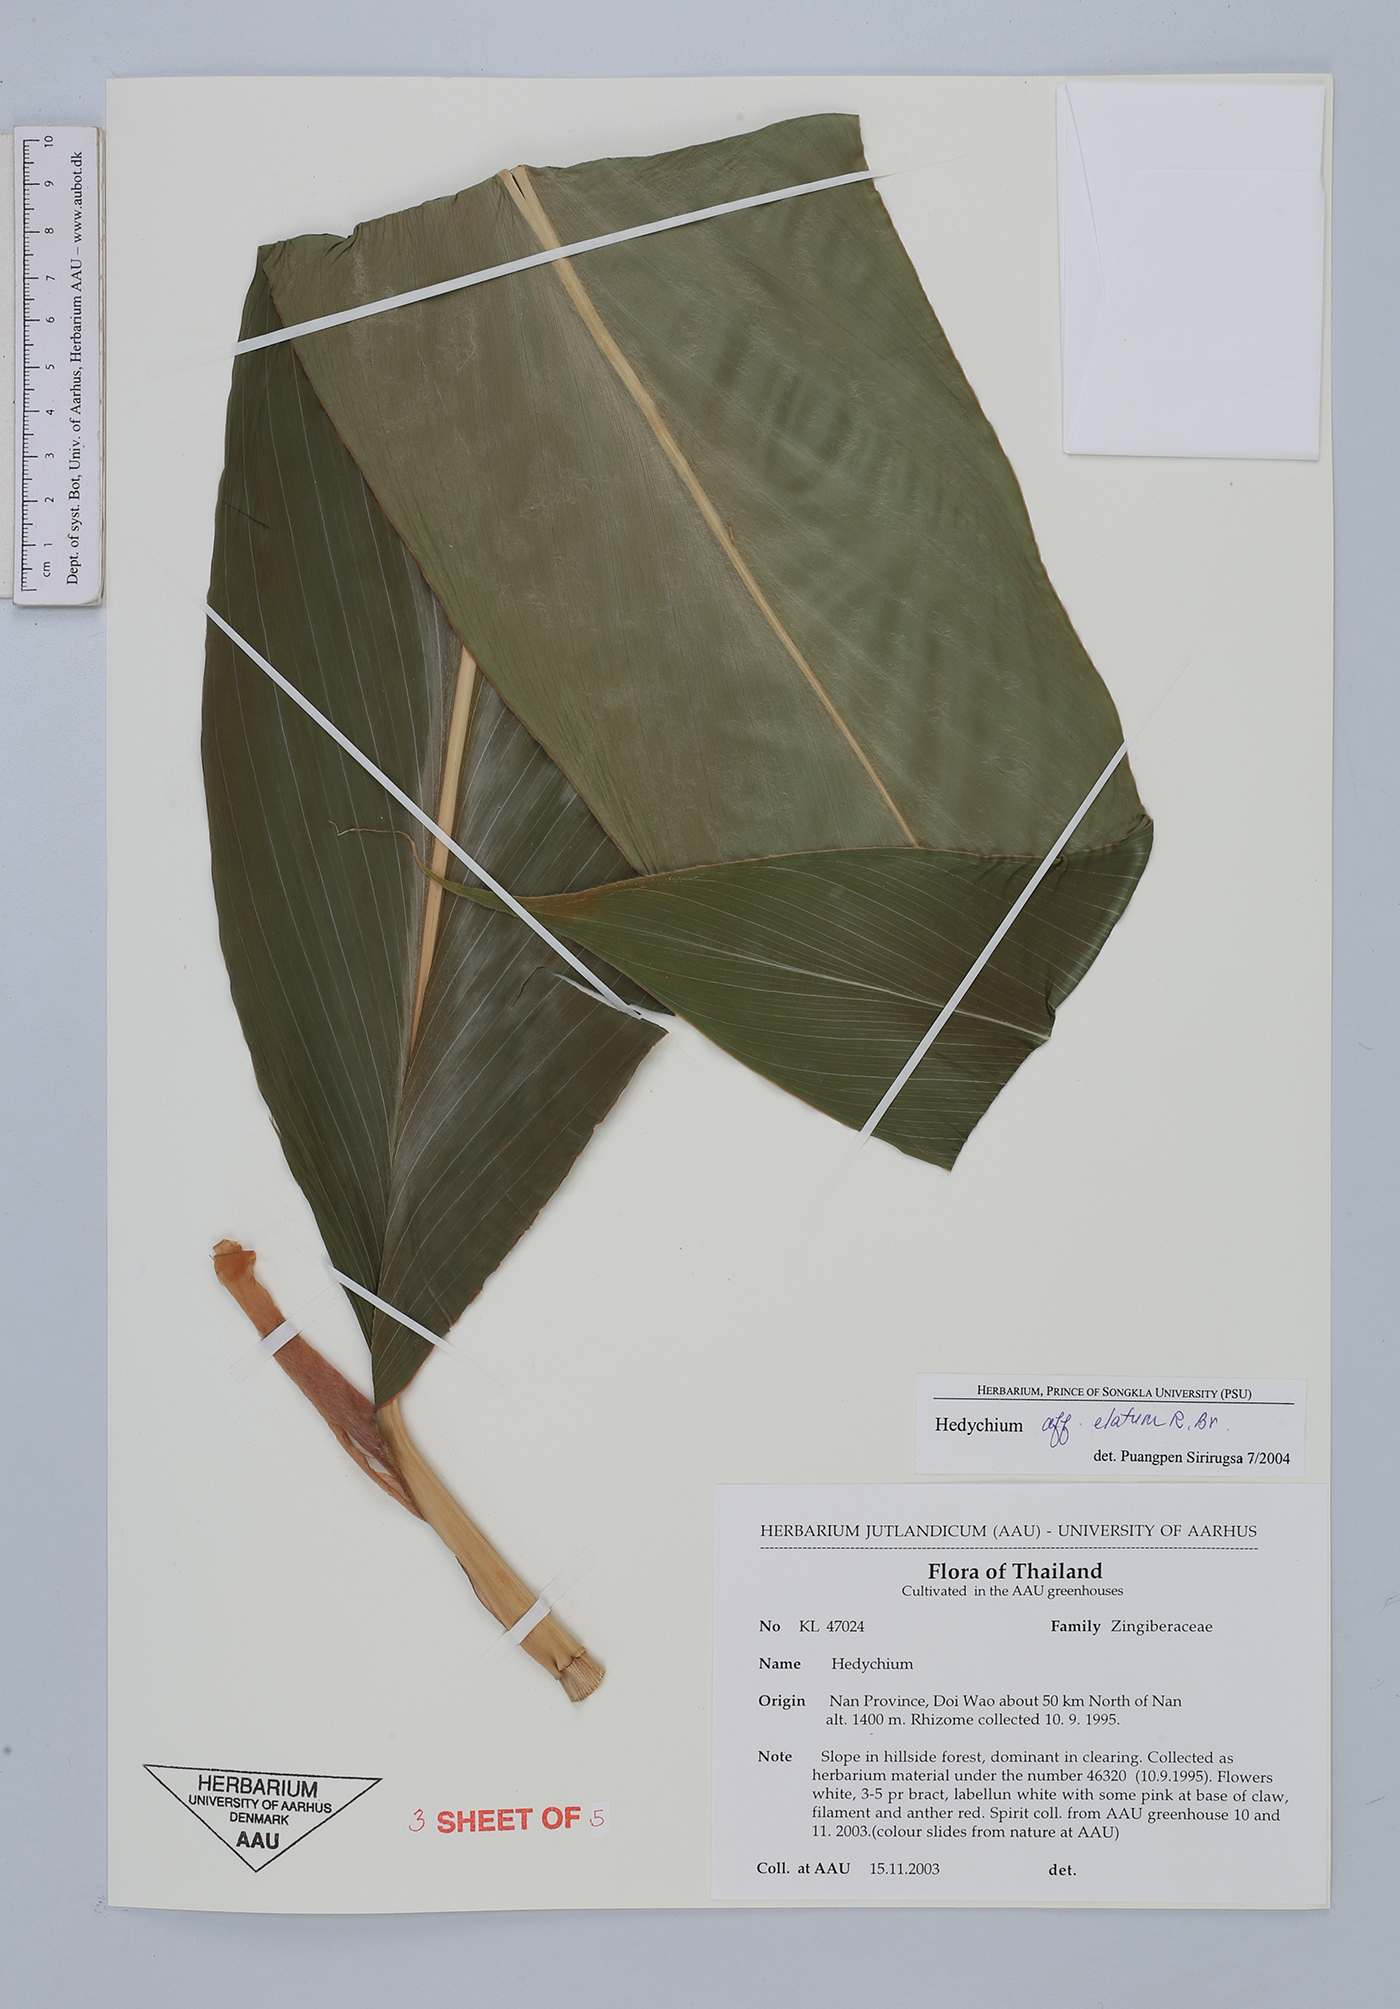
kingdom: Plantae
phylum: Tracheophyta
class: Liliopsida
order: Zingiberales
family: Zingiberaceae
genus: Hedychium
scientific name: Hedychium elatum
